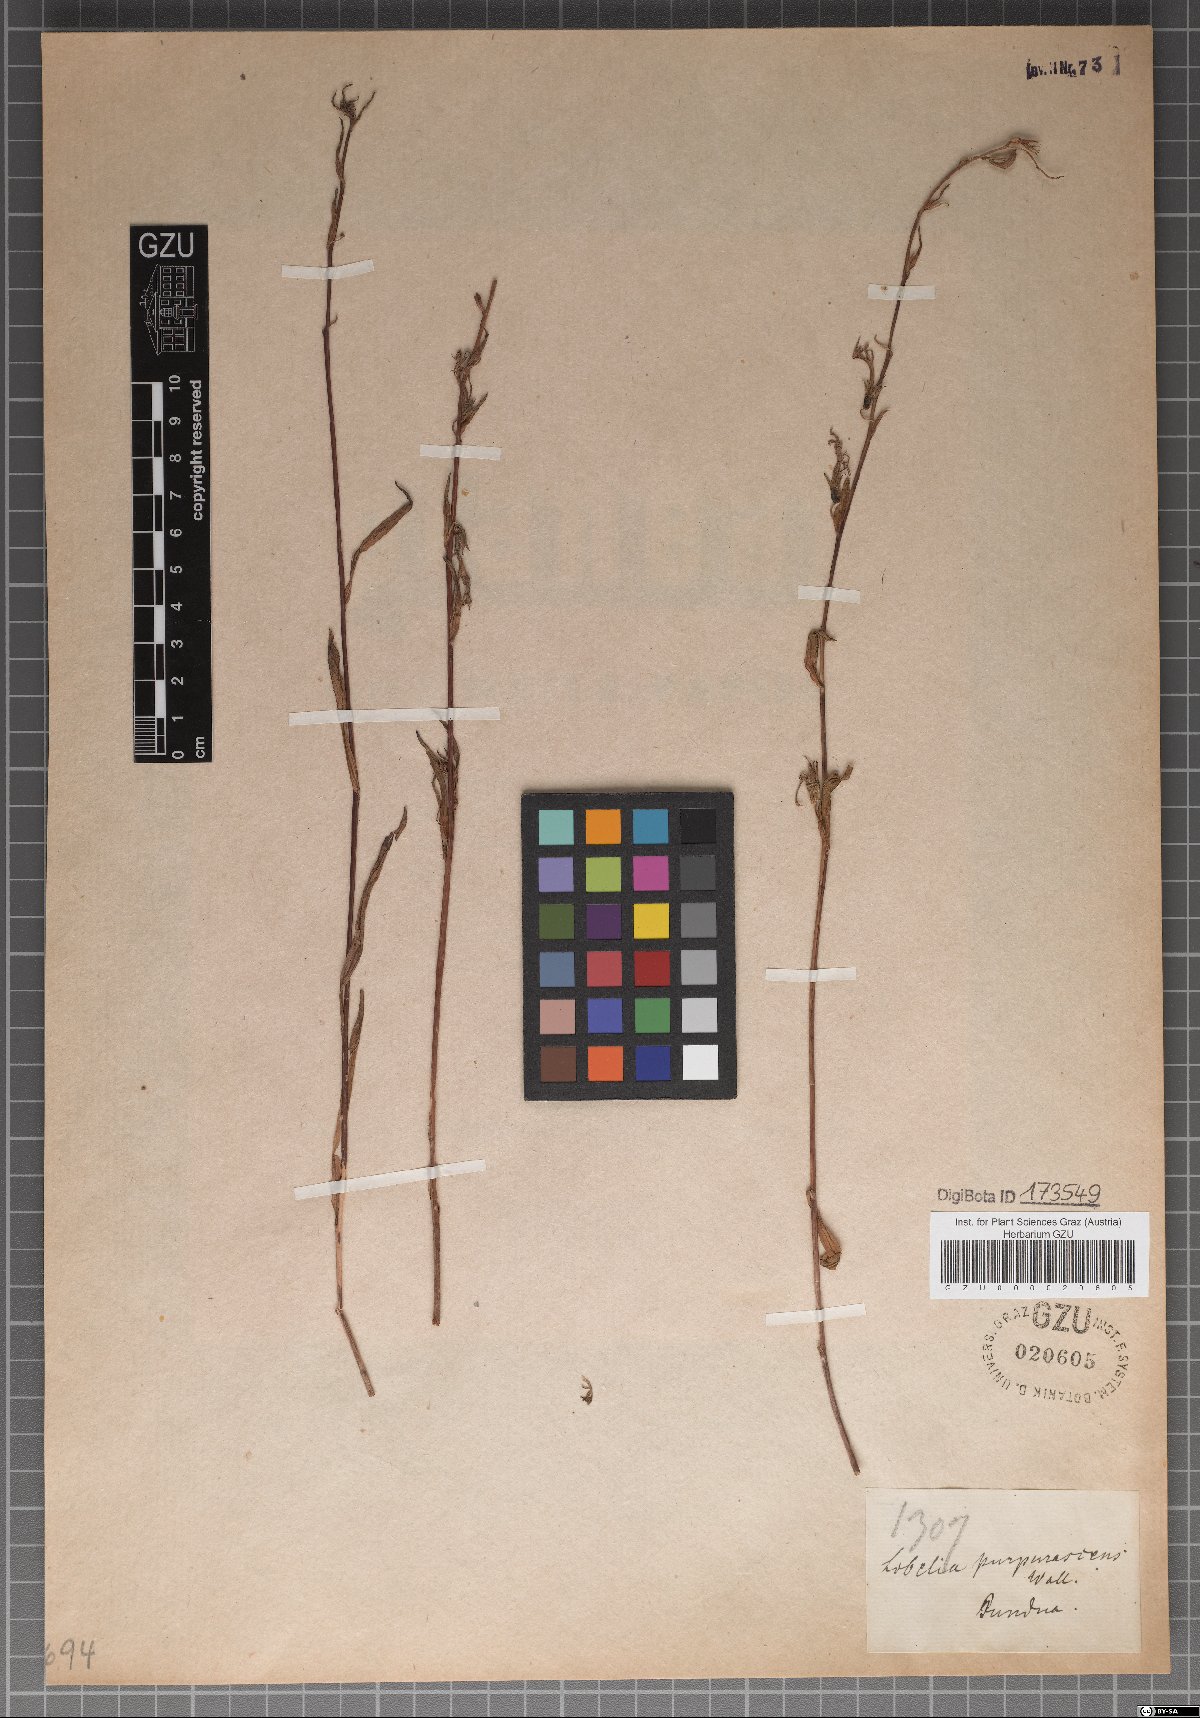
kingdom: Plantae
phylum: Tracheophyta
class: Magnoliopsida
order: Asterales
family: Campanulaceae
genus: Lobelia
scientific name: Lobelia nicotianifolia
